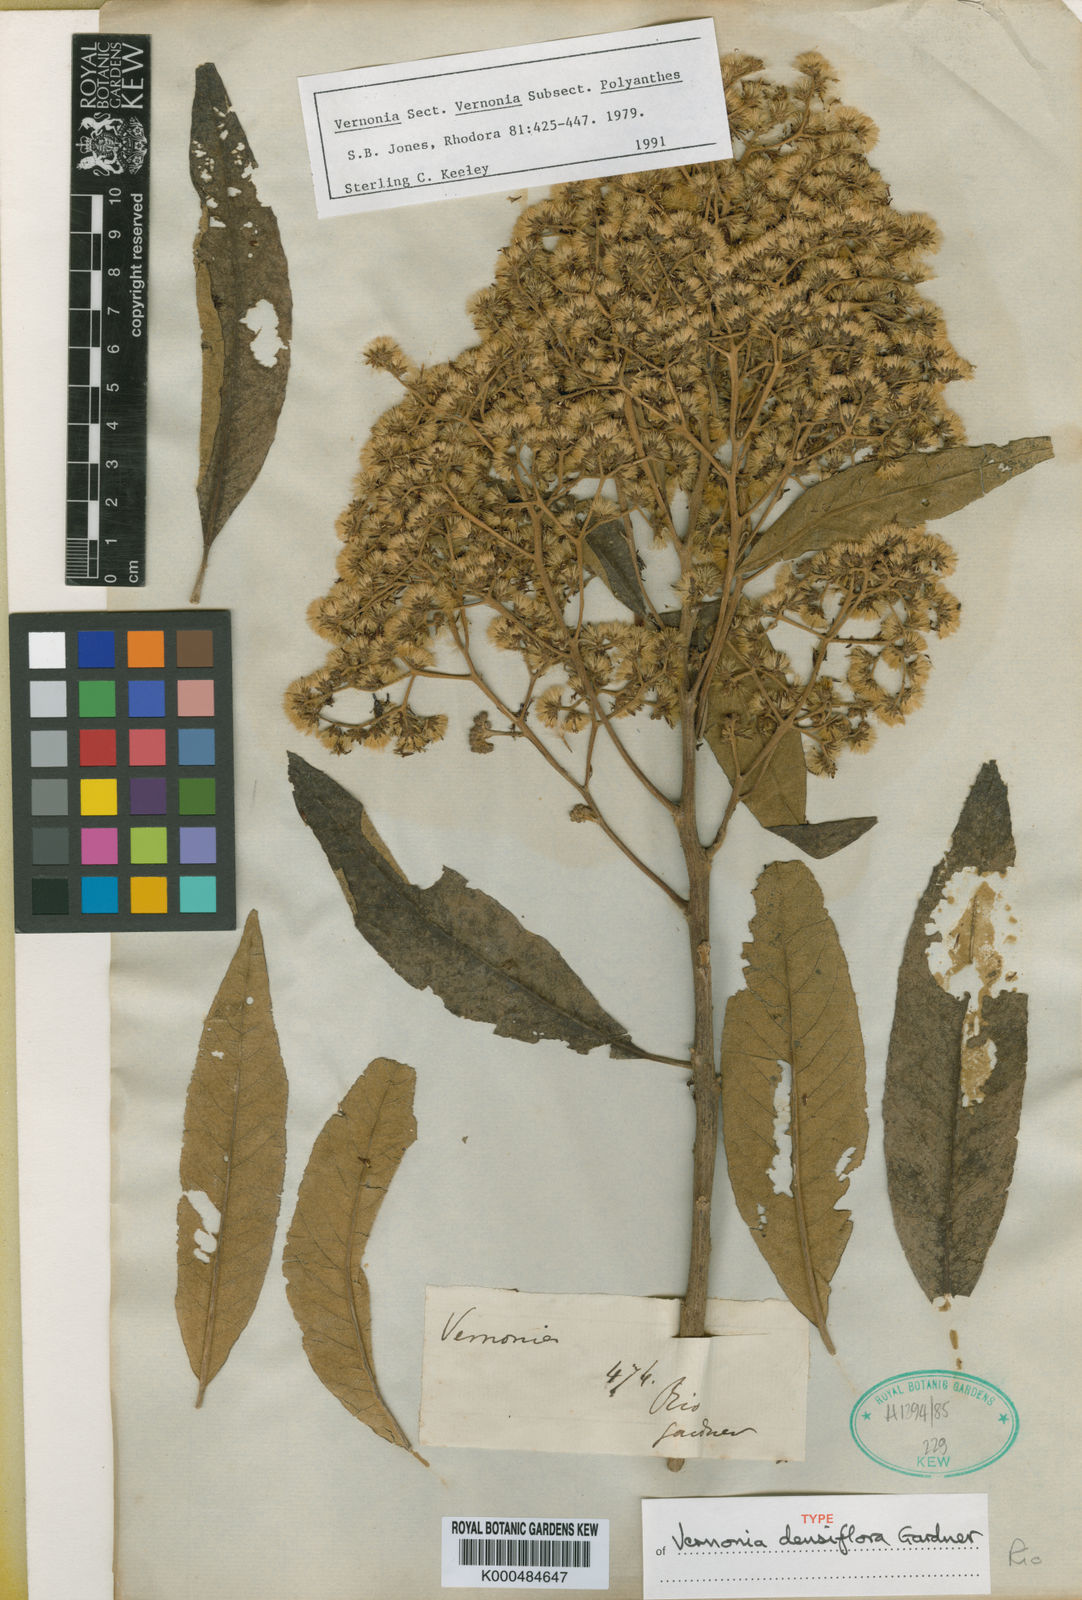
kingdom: Plantae
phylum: Tracheophyta
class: Magnoliopsida
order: Asterales
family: Asteraceae
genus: Vernonanthura
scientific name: Vernonanthura densiflora
